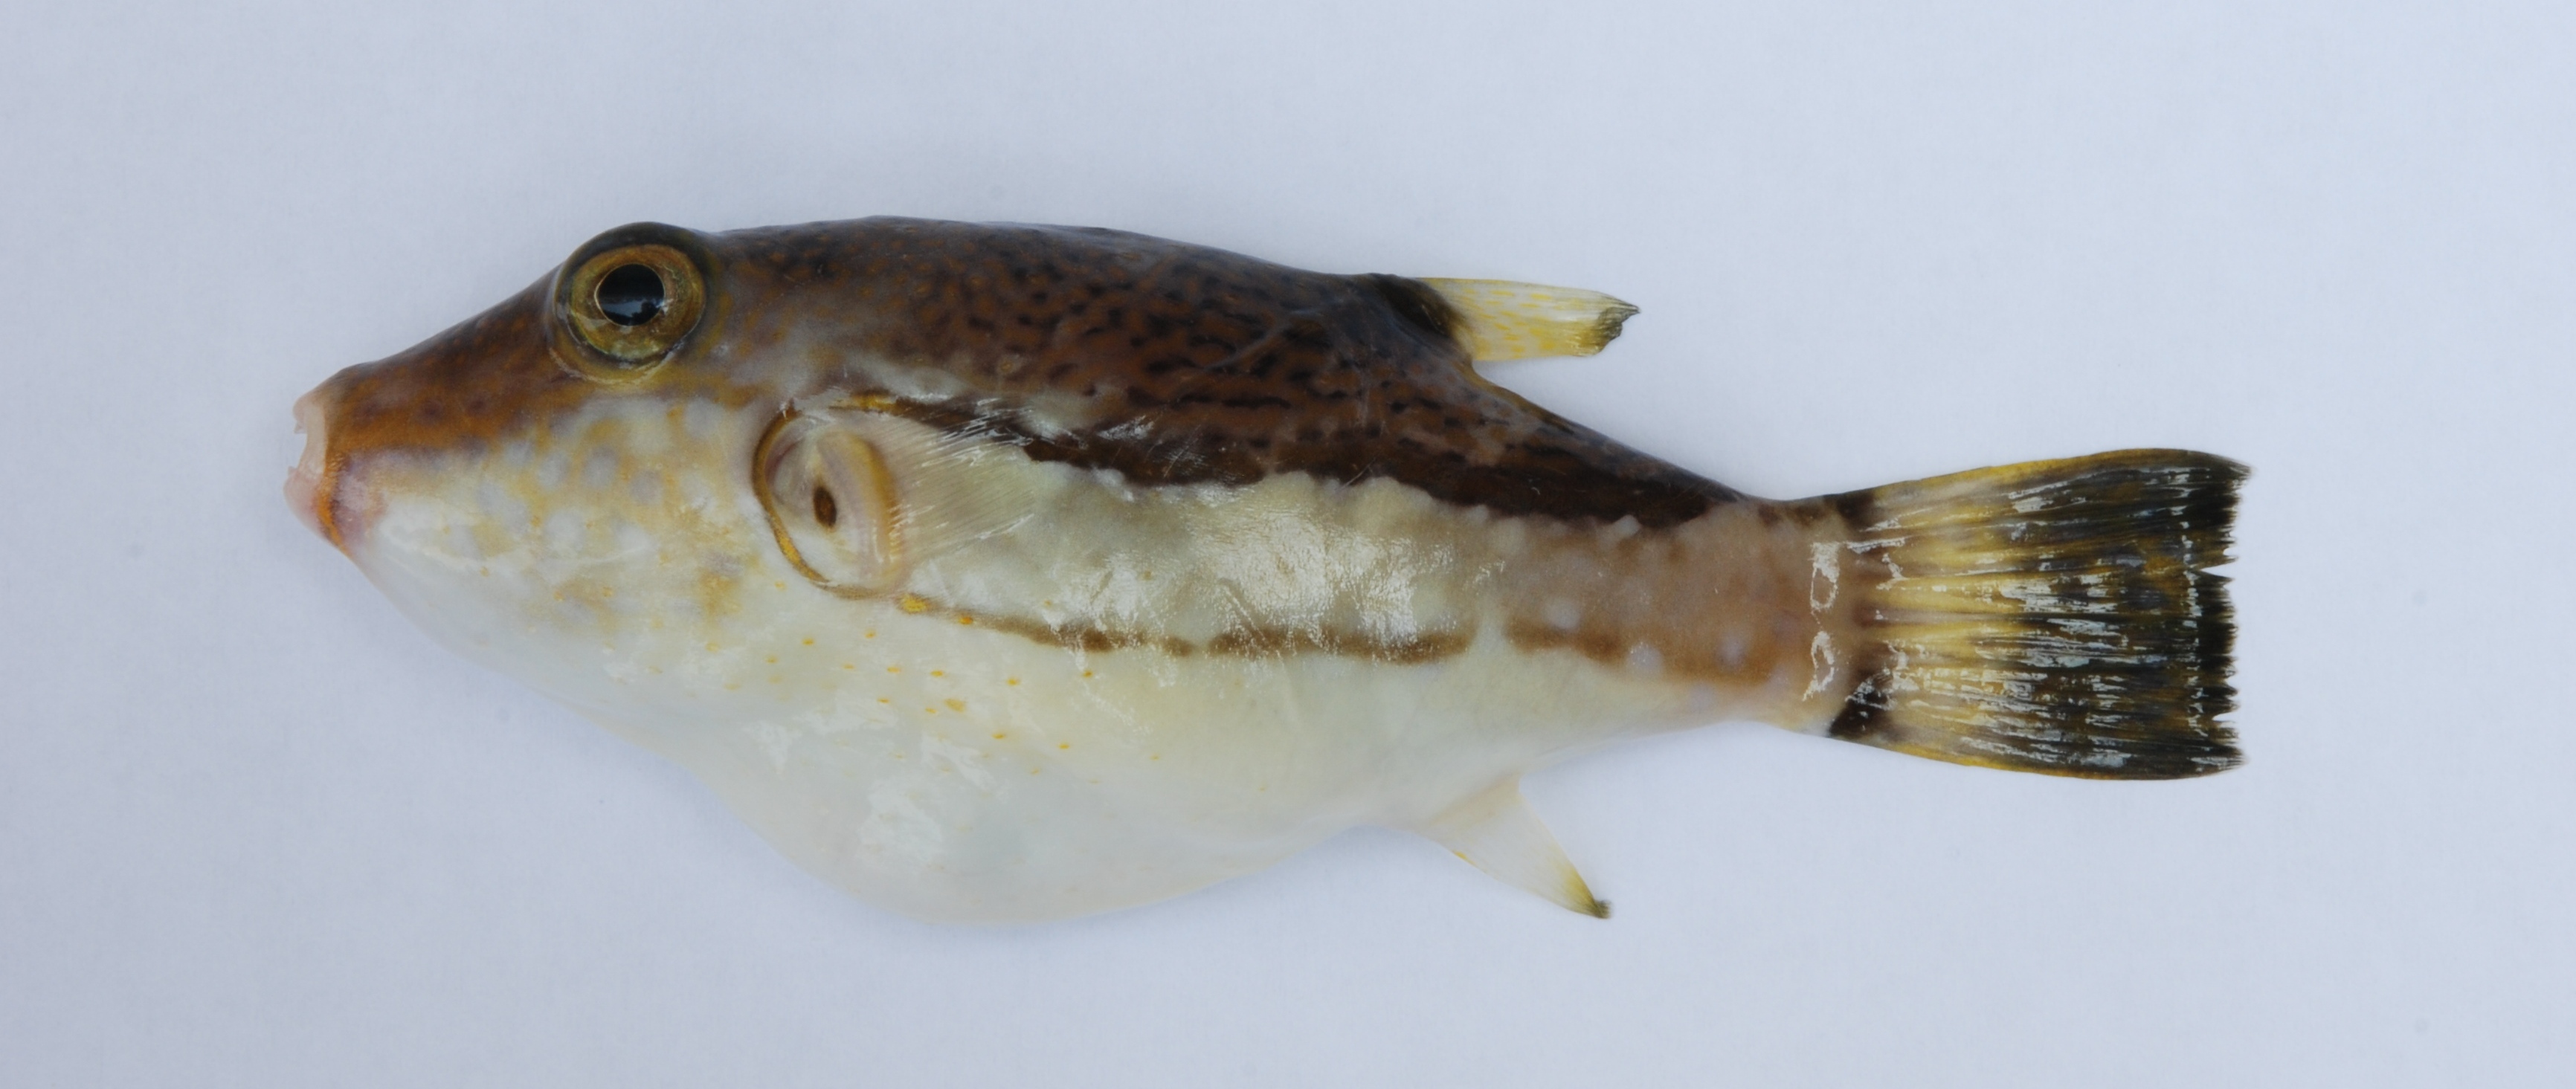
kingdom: Animalia
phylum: Chordata
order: Tetraodontiformes
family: Tetraodontidae
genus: Canthigaster
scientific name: Canthigaster rivulata
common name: Brown-lined puffer
